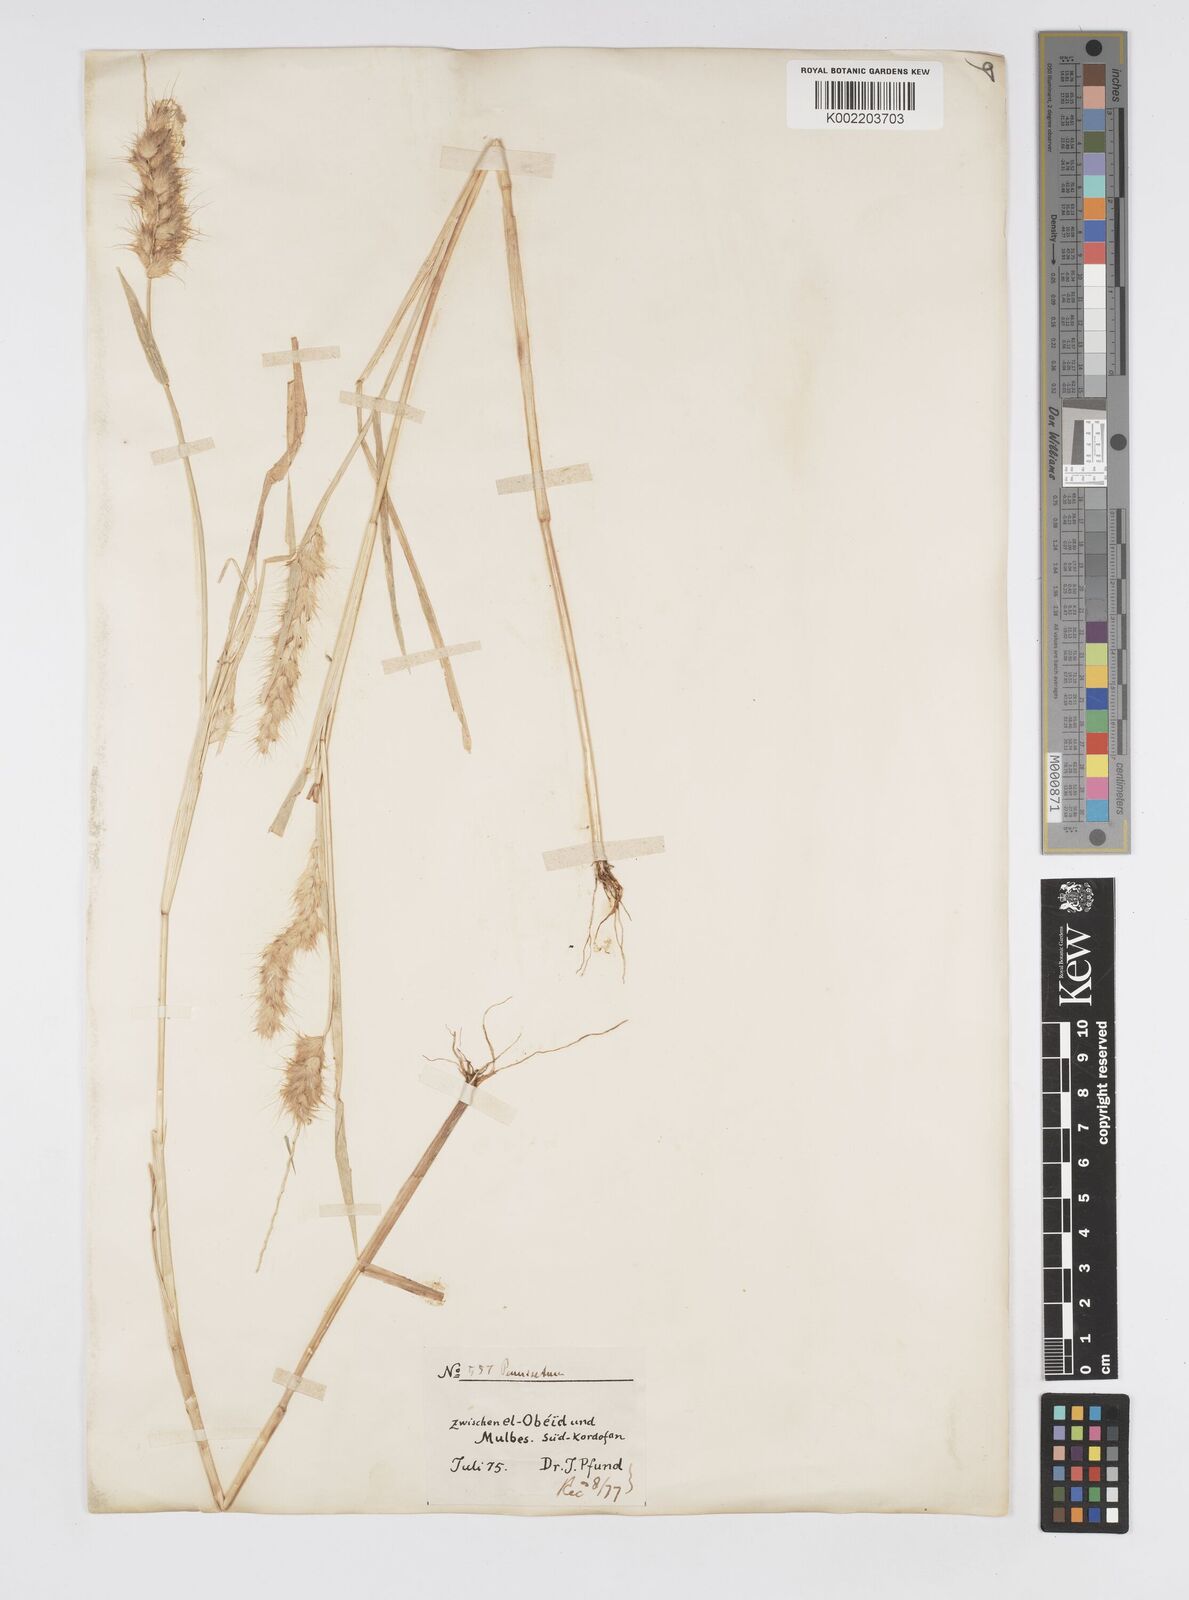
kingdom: Plantae
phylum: Tracheophyta
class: Liliopsida
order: Poales
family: Poaceae
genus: Cenchrus
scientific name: Cenchrus pedicellatus
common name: Hairy fountain grass
